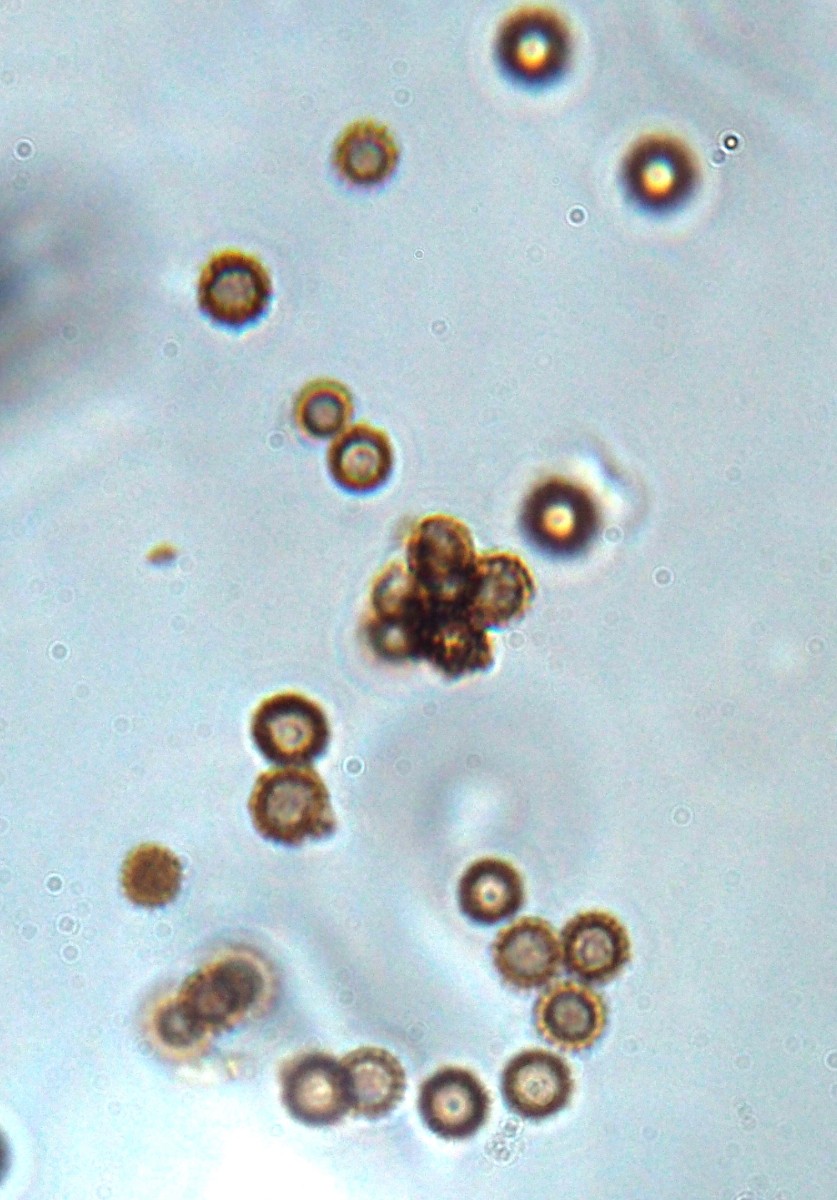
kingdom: Fungi
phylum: Basidiomycota
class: Agaricomycetes
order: Geastrales
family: Geastraceae
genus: Geastrum
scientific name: Geastrum michelianum
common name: kødet stjernebold
